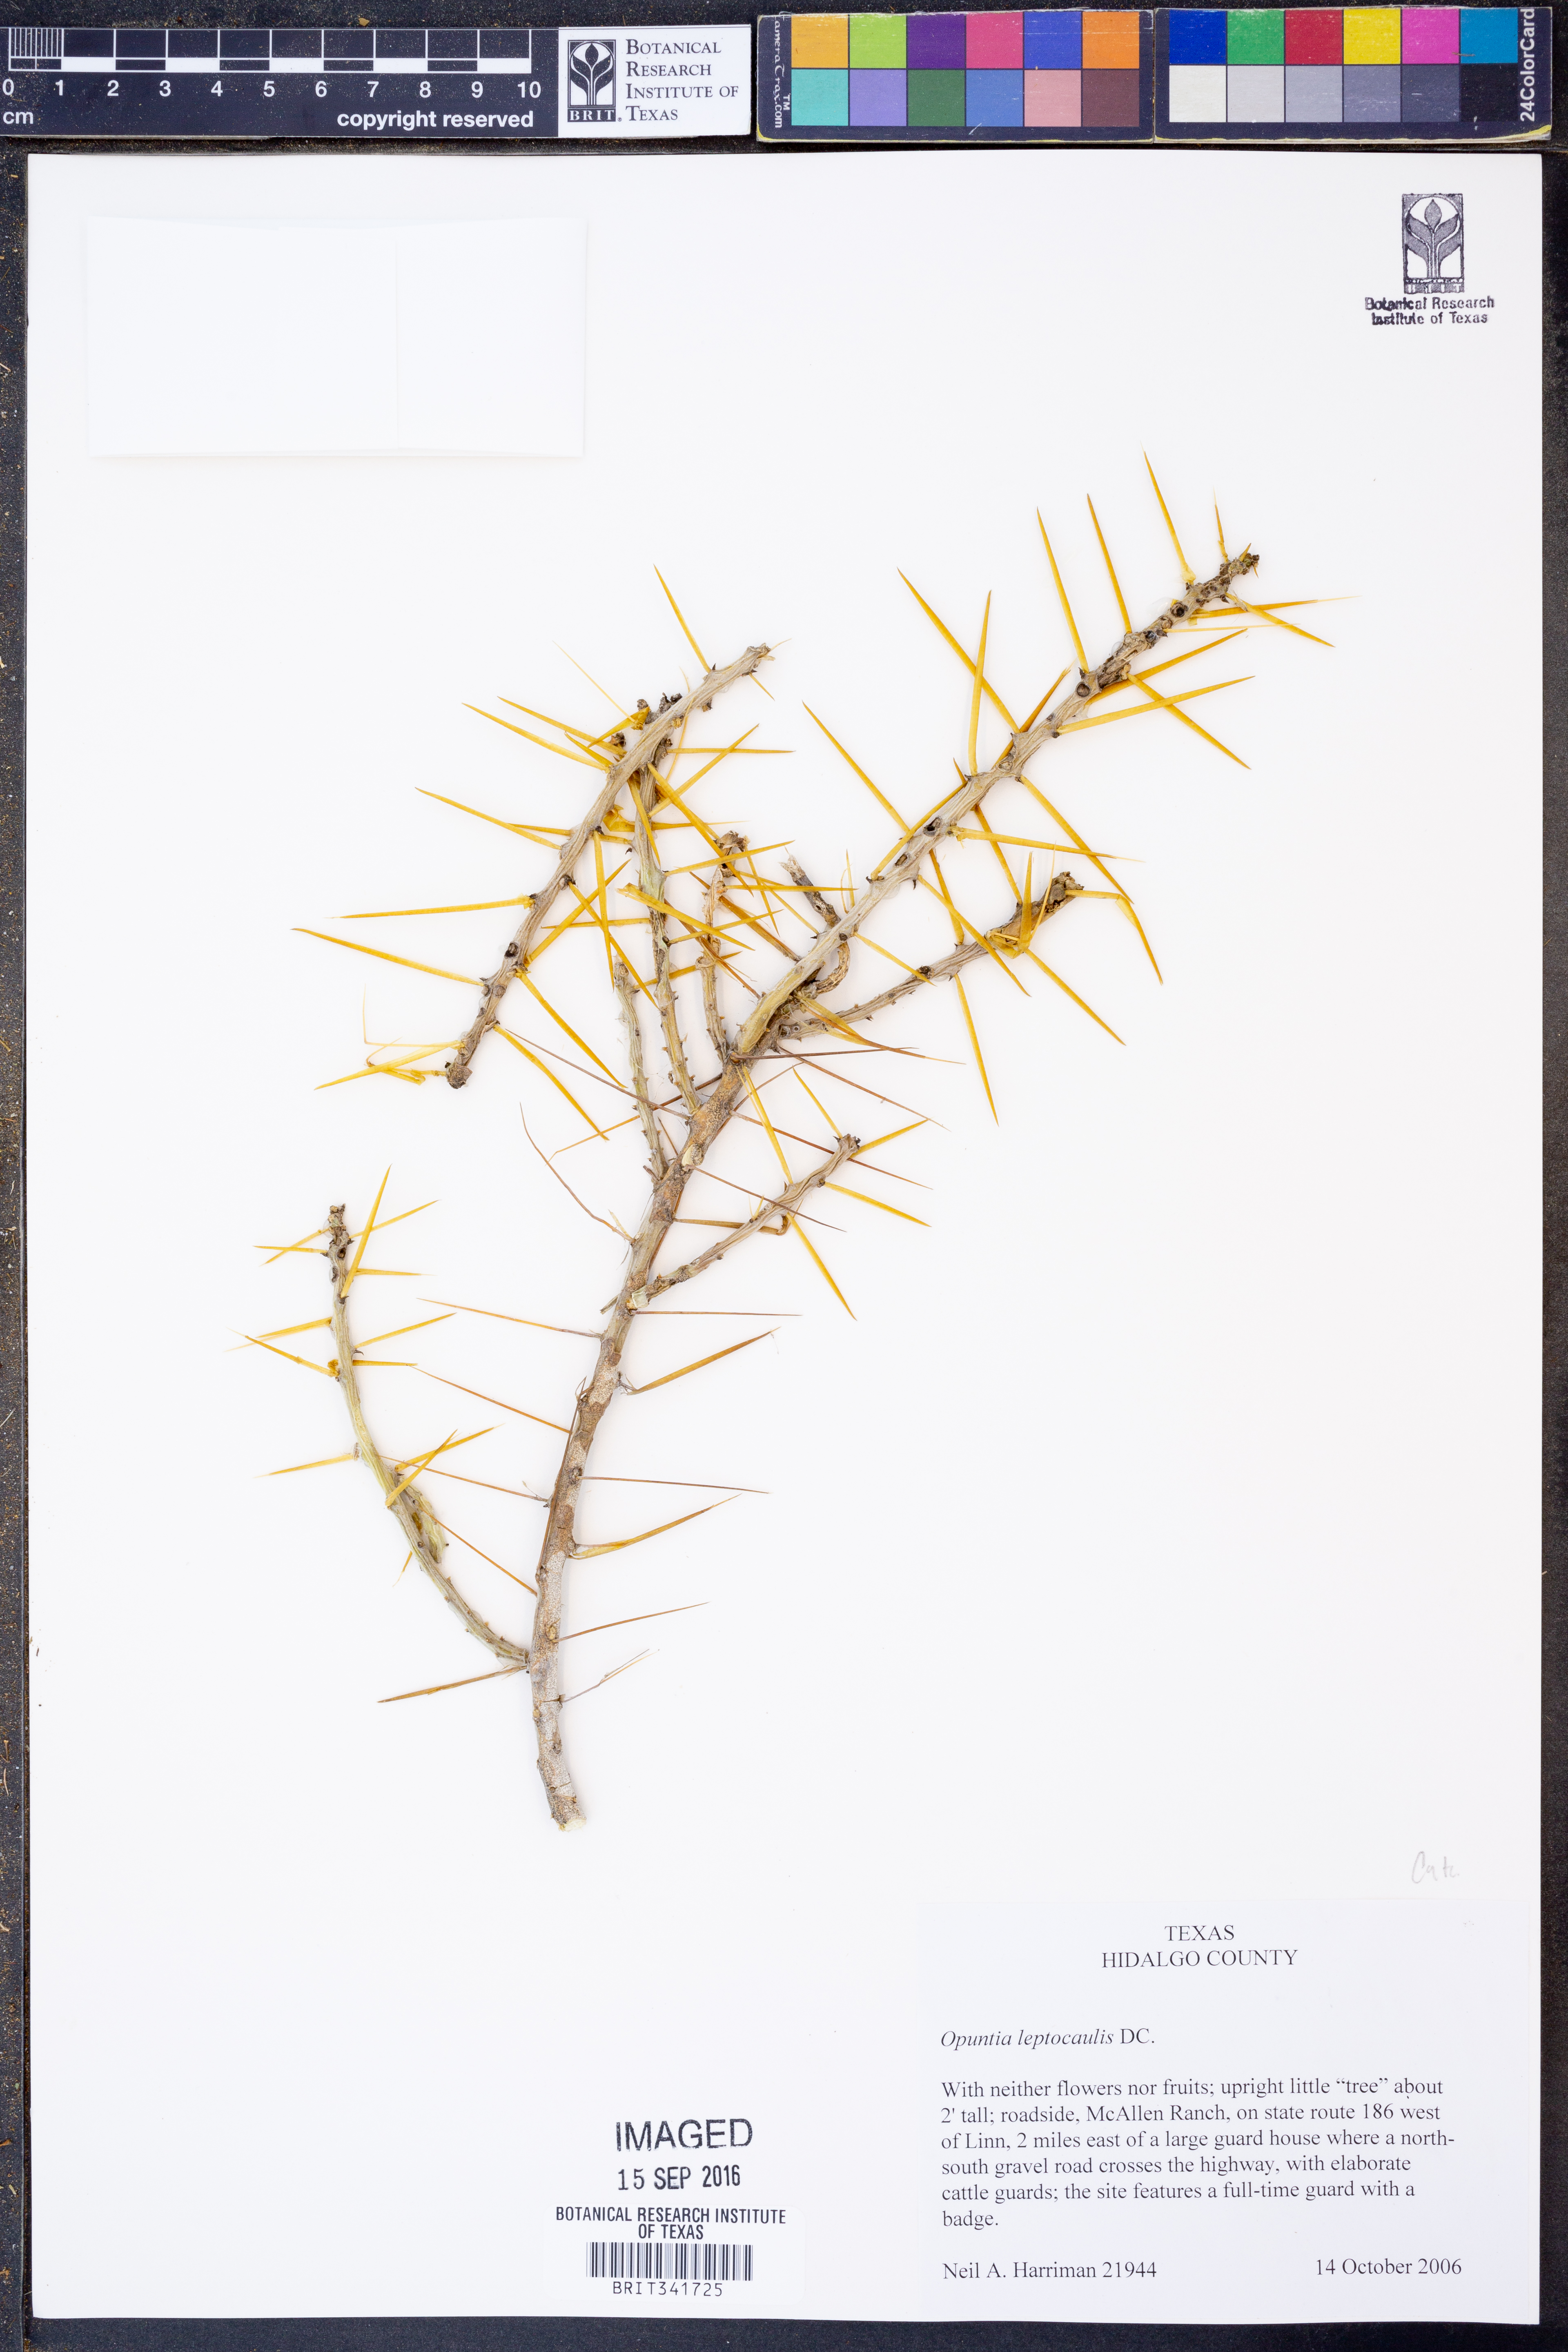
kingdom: Plantae
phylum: Tracheophyta
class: Magnoliopsida
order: Caryophyllales
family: Cactaceae
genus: Cylindropuntia
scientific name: Cylindropuntia leptocaulis
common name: Christmas cactus
